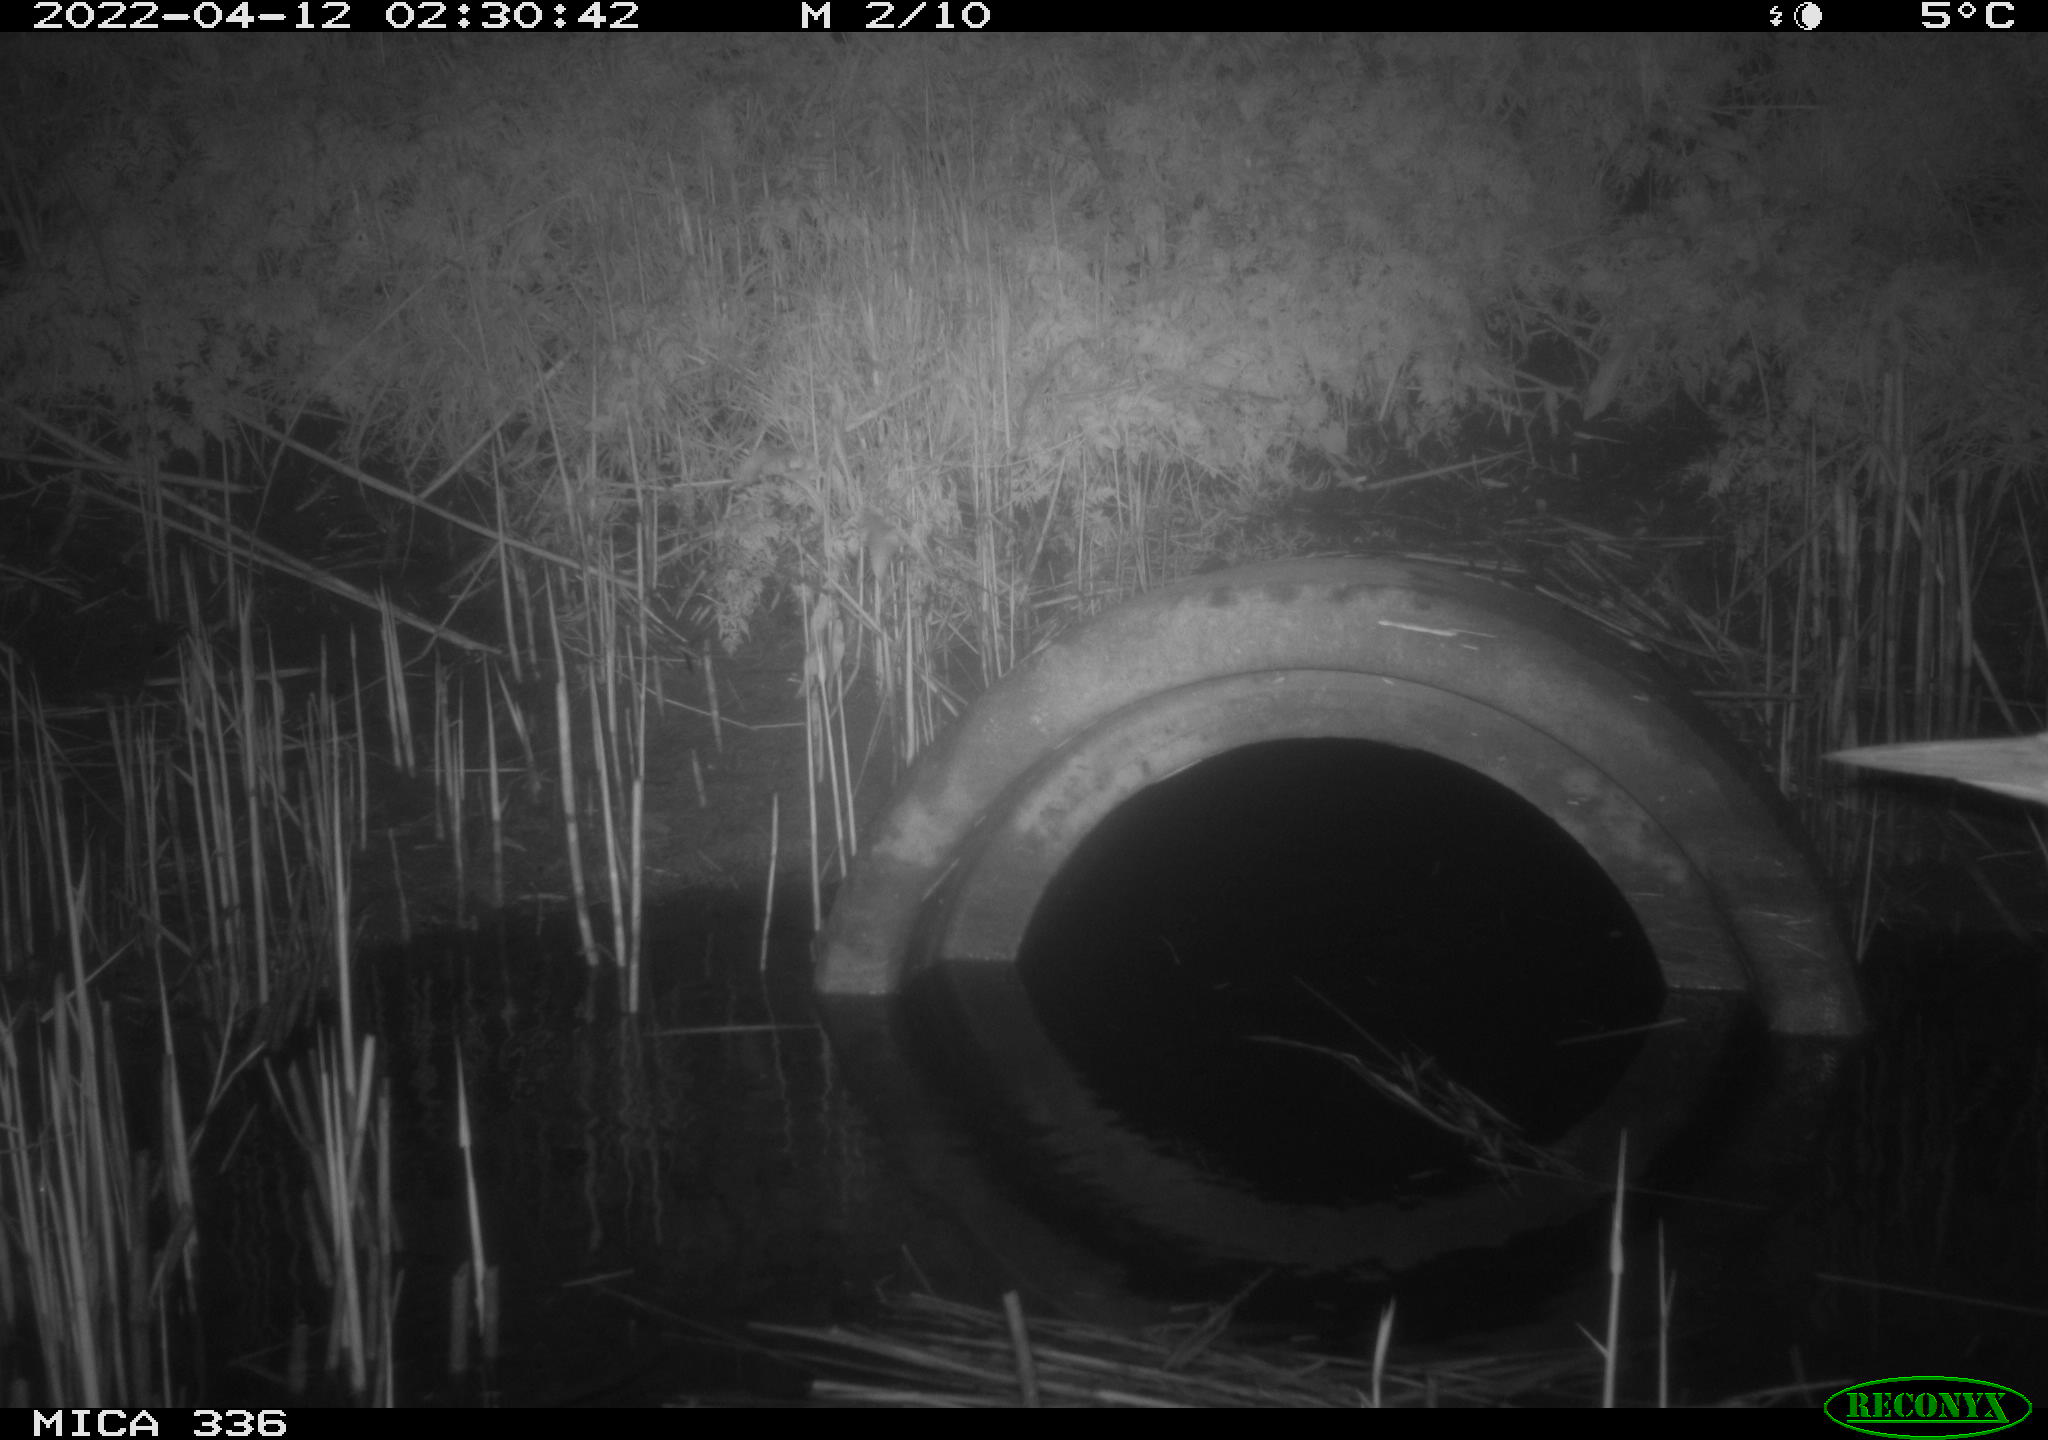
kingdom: Animalia
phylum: Chordata
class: Aves
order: Pelecaniformes
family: Ardeidae
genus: Ardea
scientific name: Ardea
